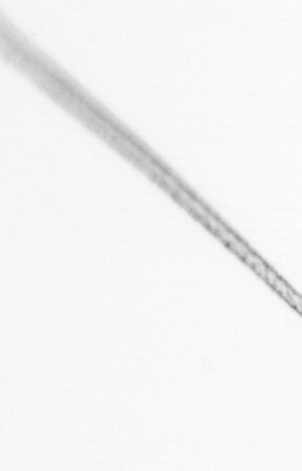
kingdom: Animalia
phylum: Arthropoda
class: Copepoda
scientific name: Copepoda
